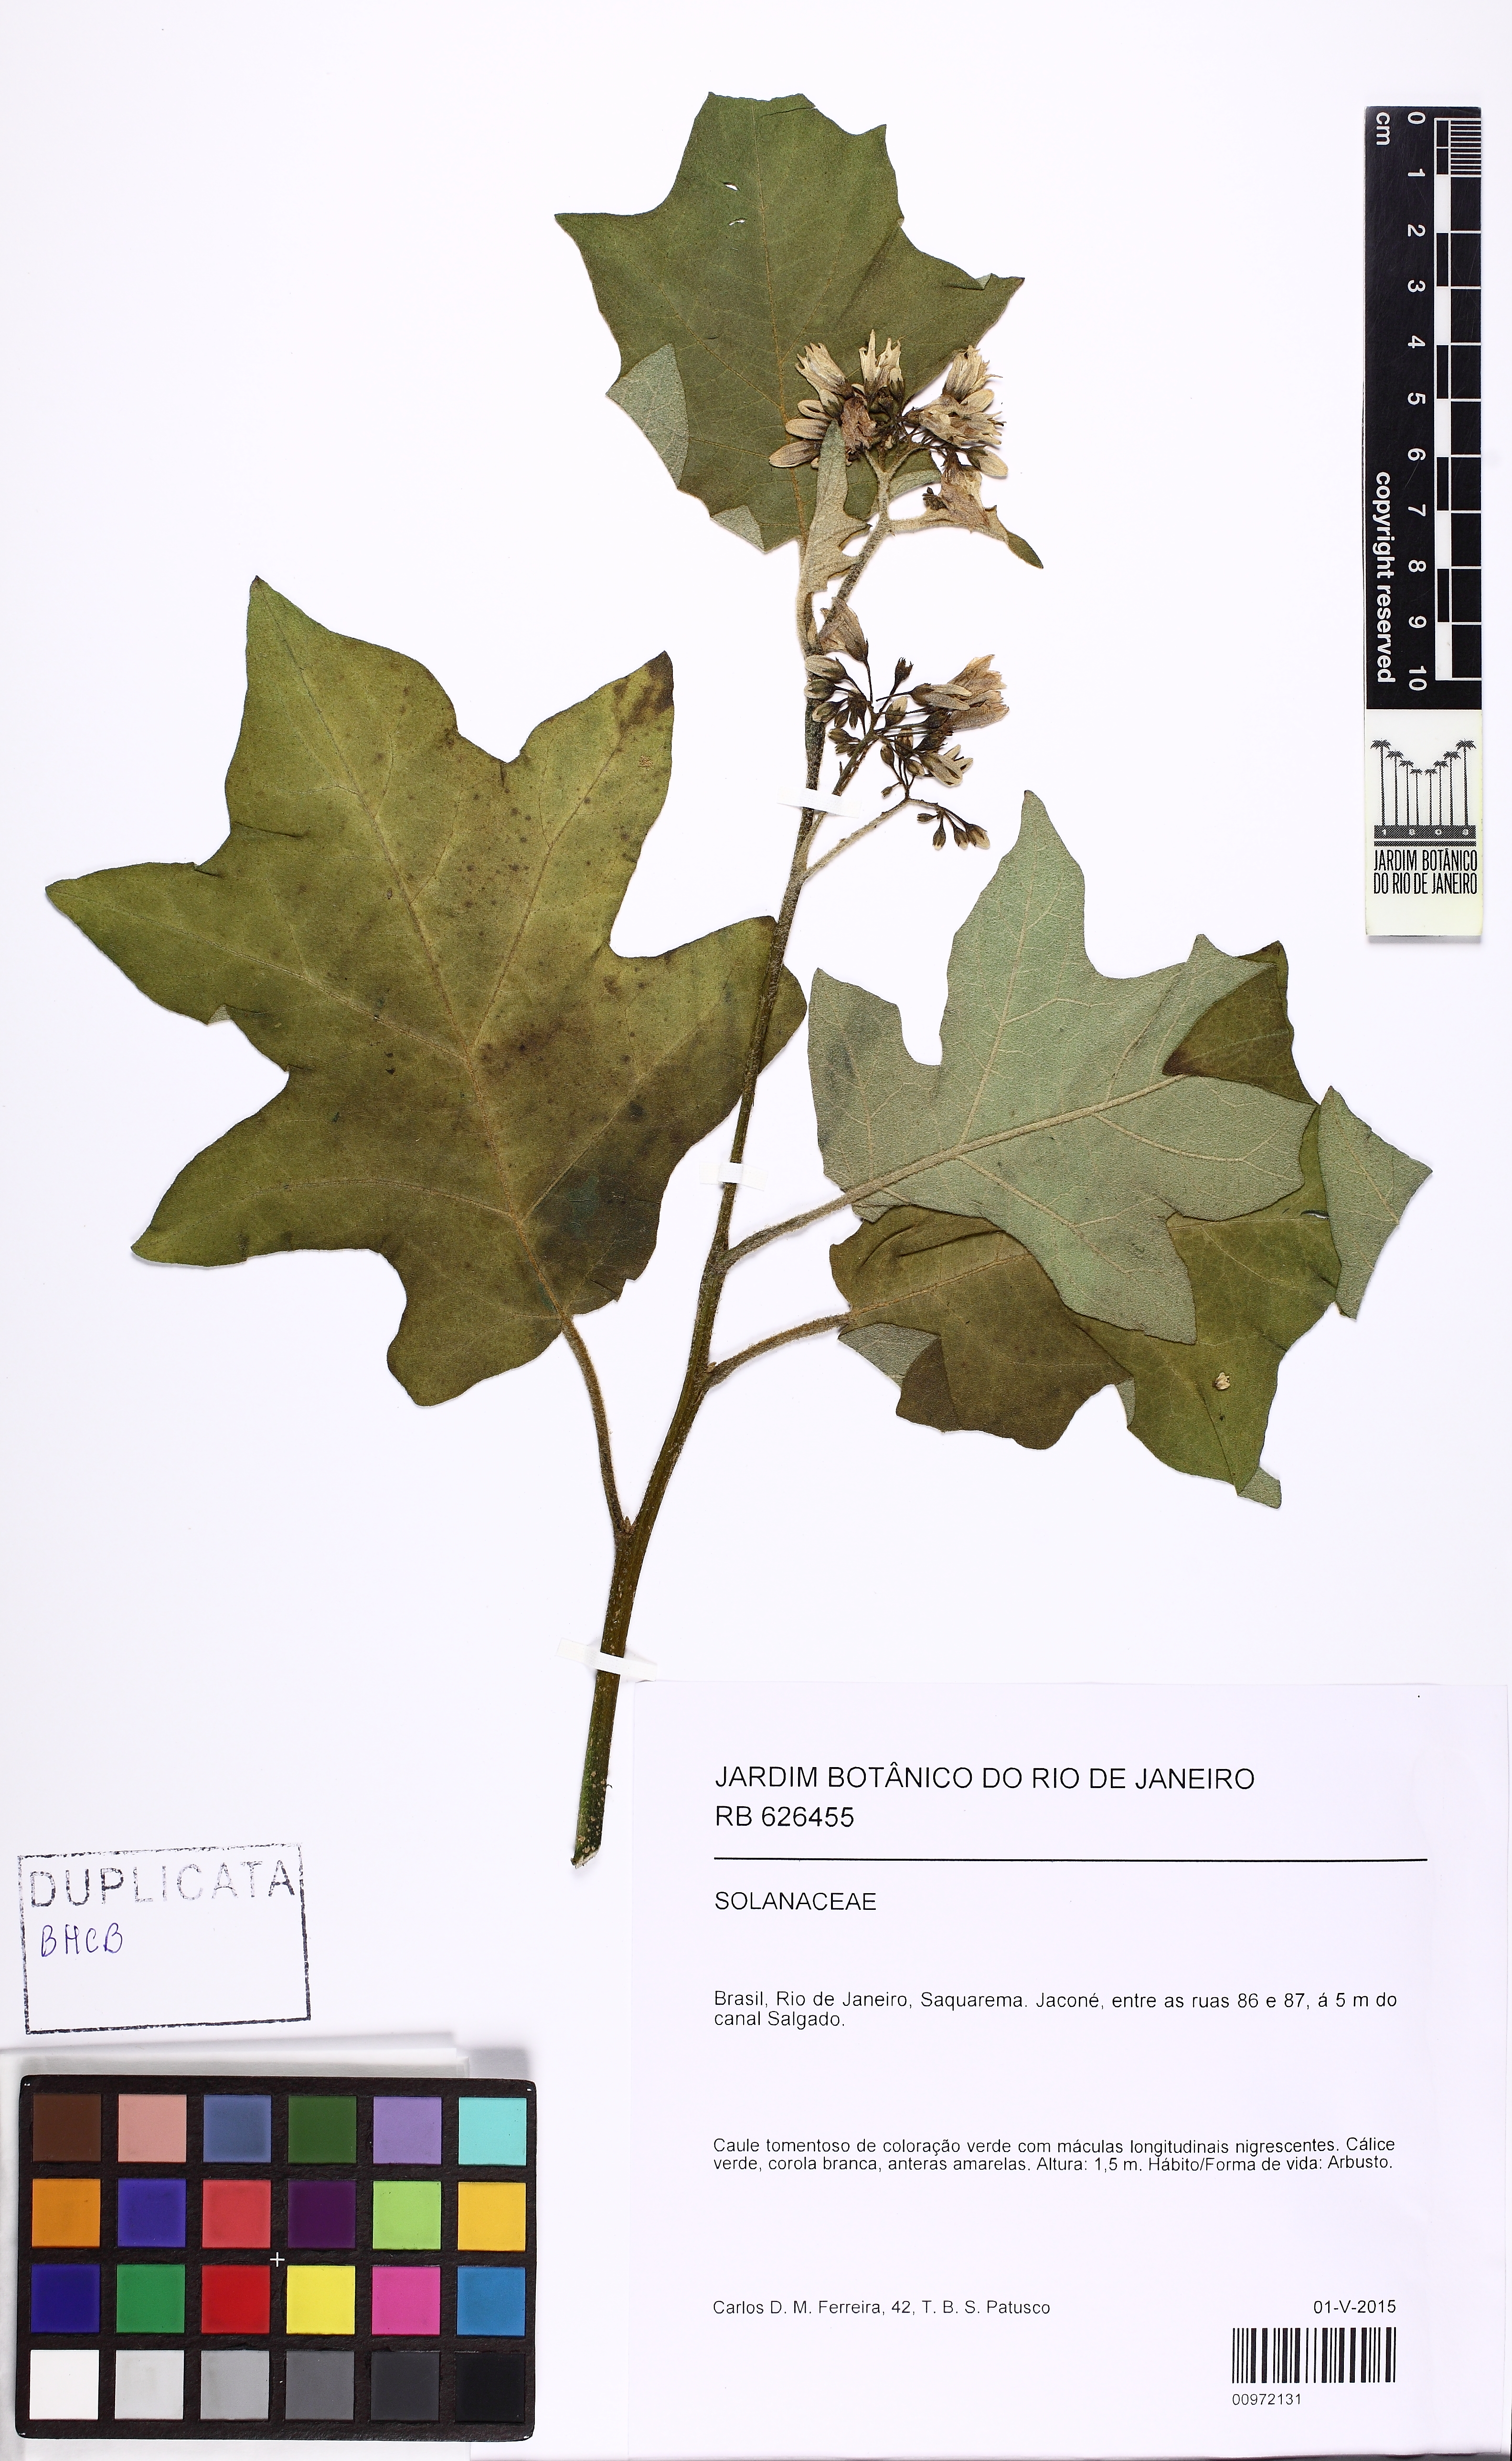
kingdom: Plantae
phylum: Tracheophyta
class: Magnoliopsida
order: Solanales
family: Solanaceae
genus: Solanum
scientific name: Solanum
